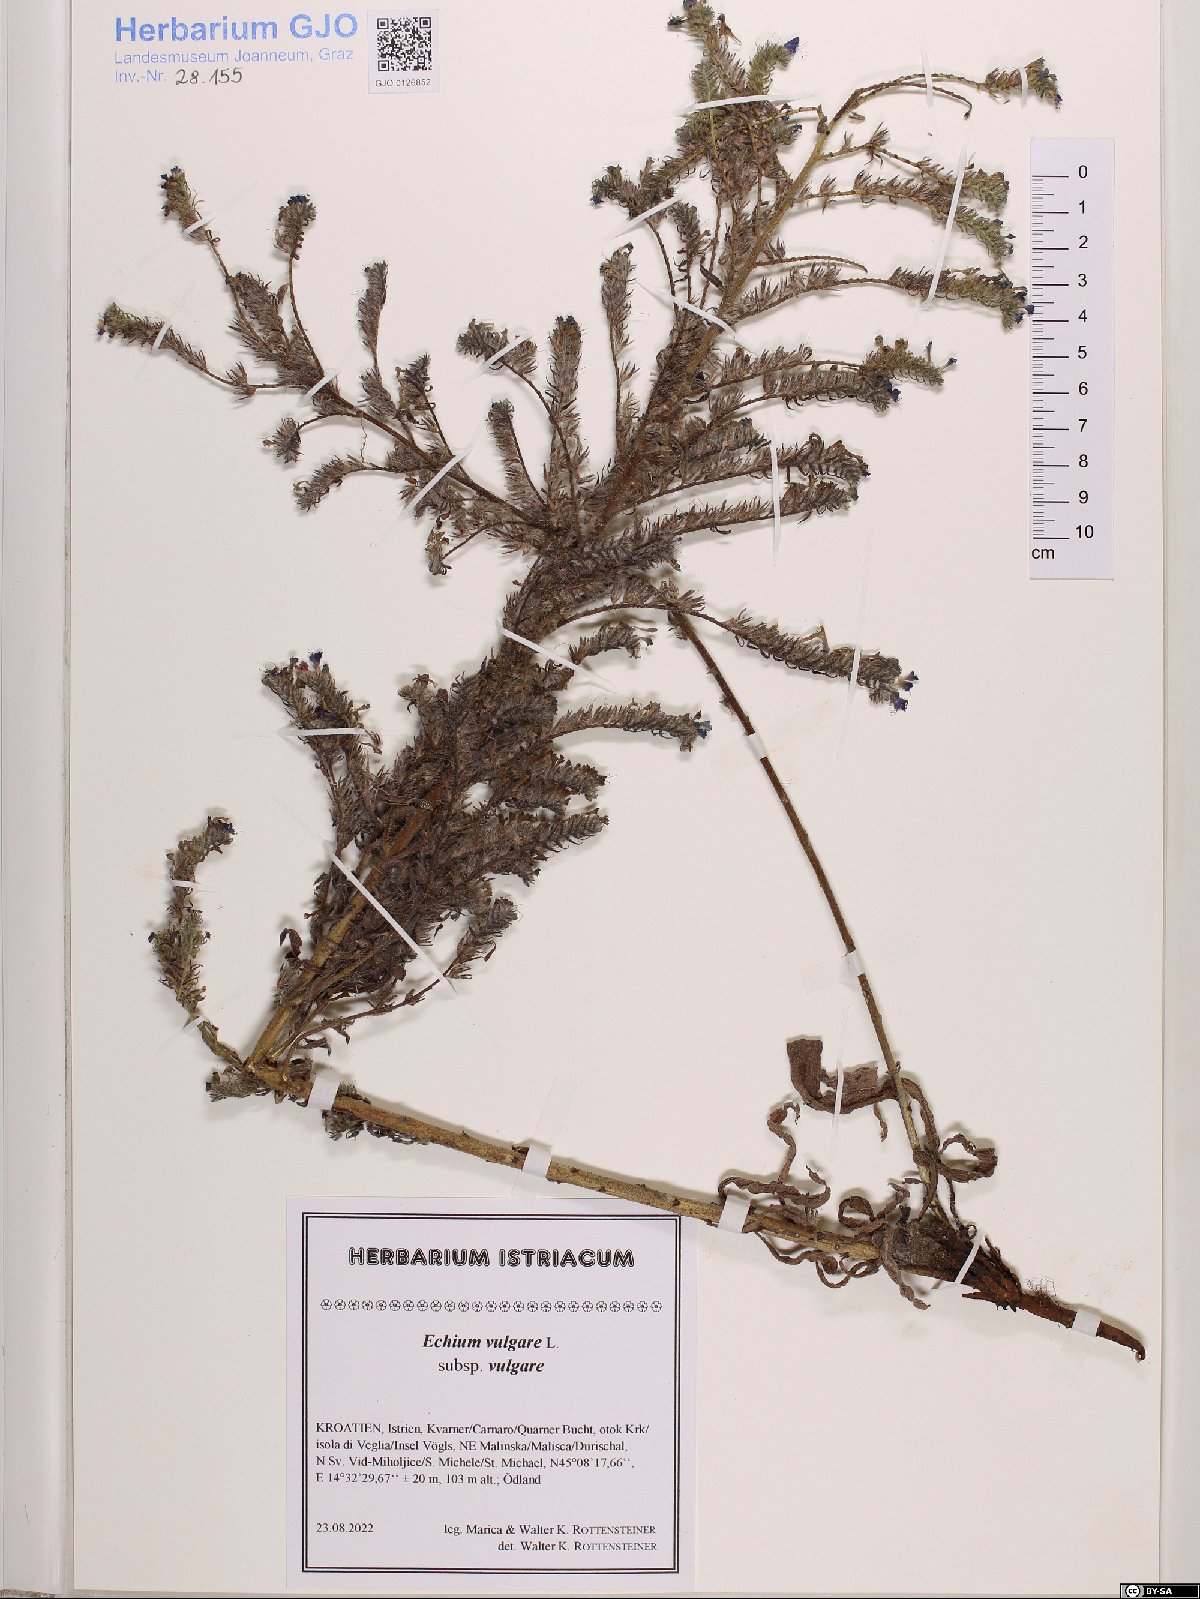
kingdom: Plantae
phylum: Tracheophyta
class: Magnoliopsida
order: Boraginales
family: Boraginaceae
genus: Echium
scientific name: Echium vulgare
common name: Common viper's bugloss
